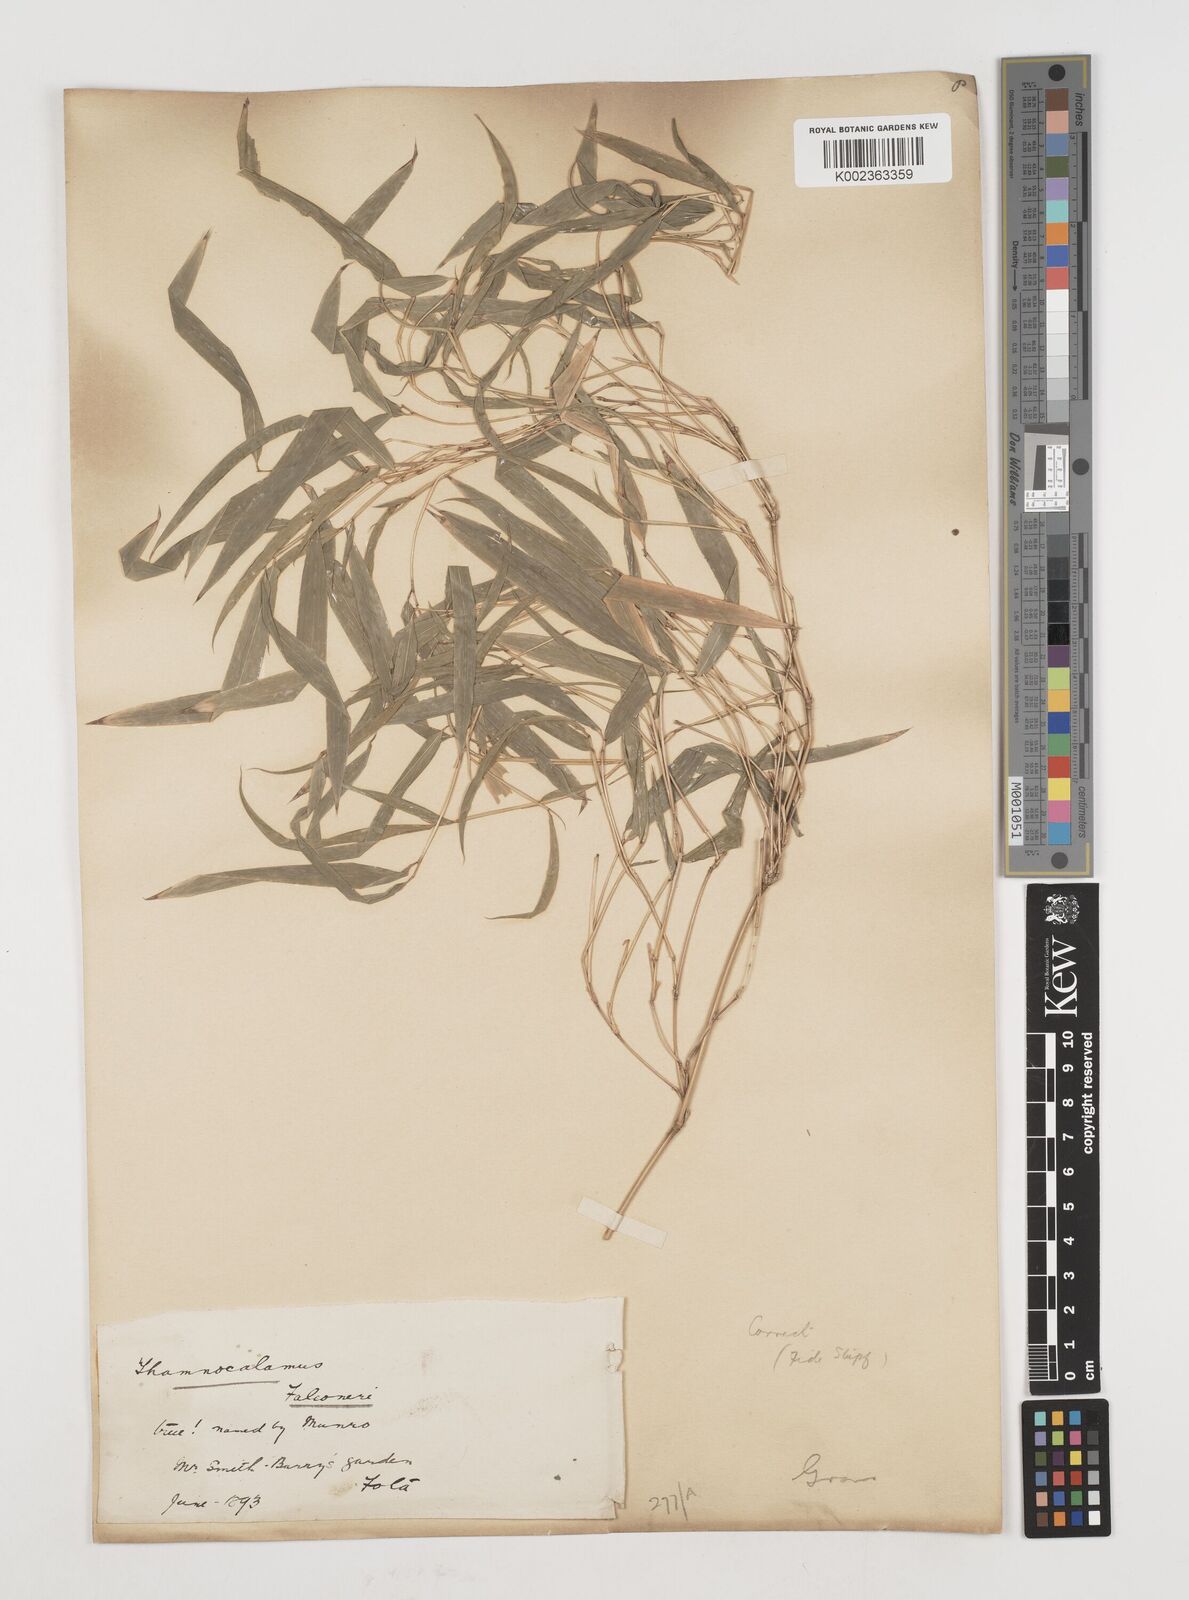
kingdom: Plantae
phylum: Tracheophyta
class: Liliopsida
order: Poales
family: Poaceae
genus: Himalayacalamus
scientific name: Himalayacalamus falconeri
